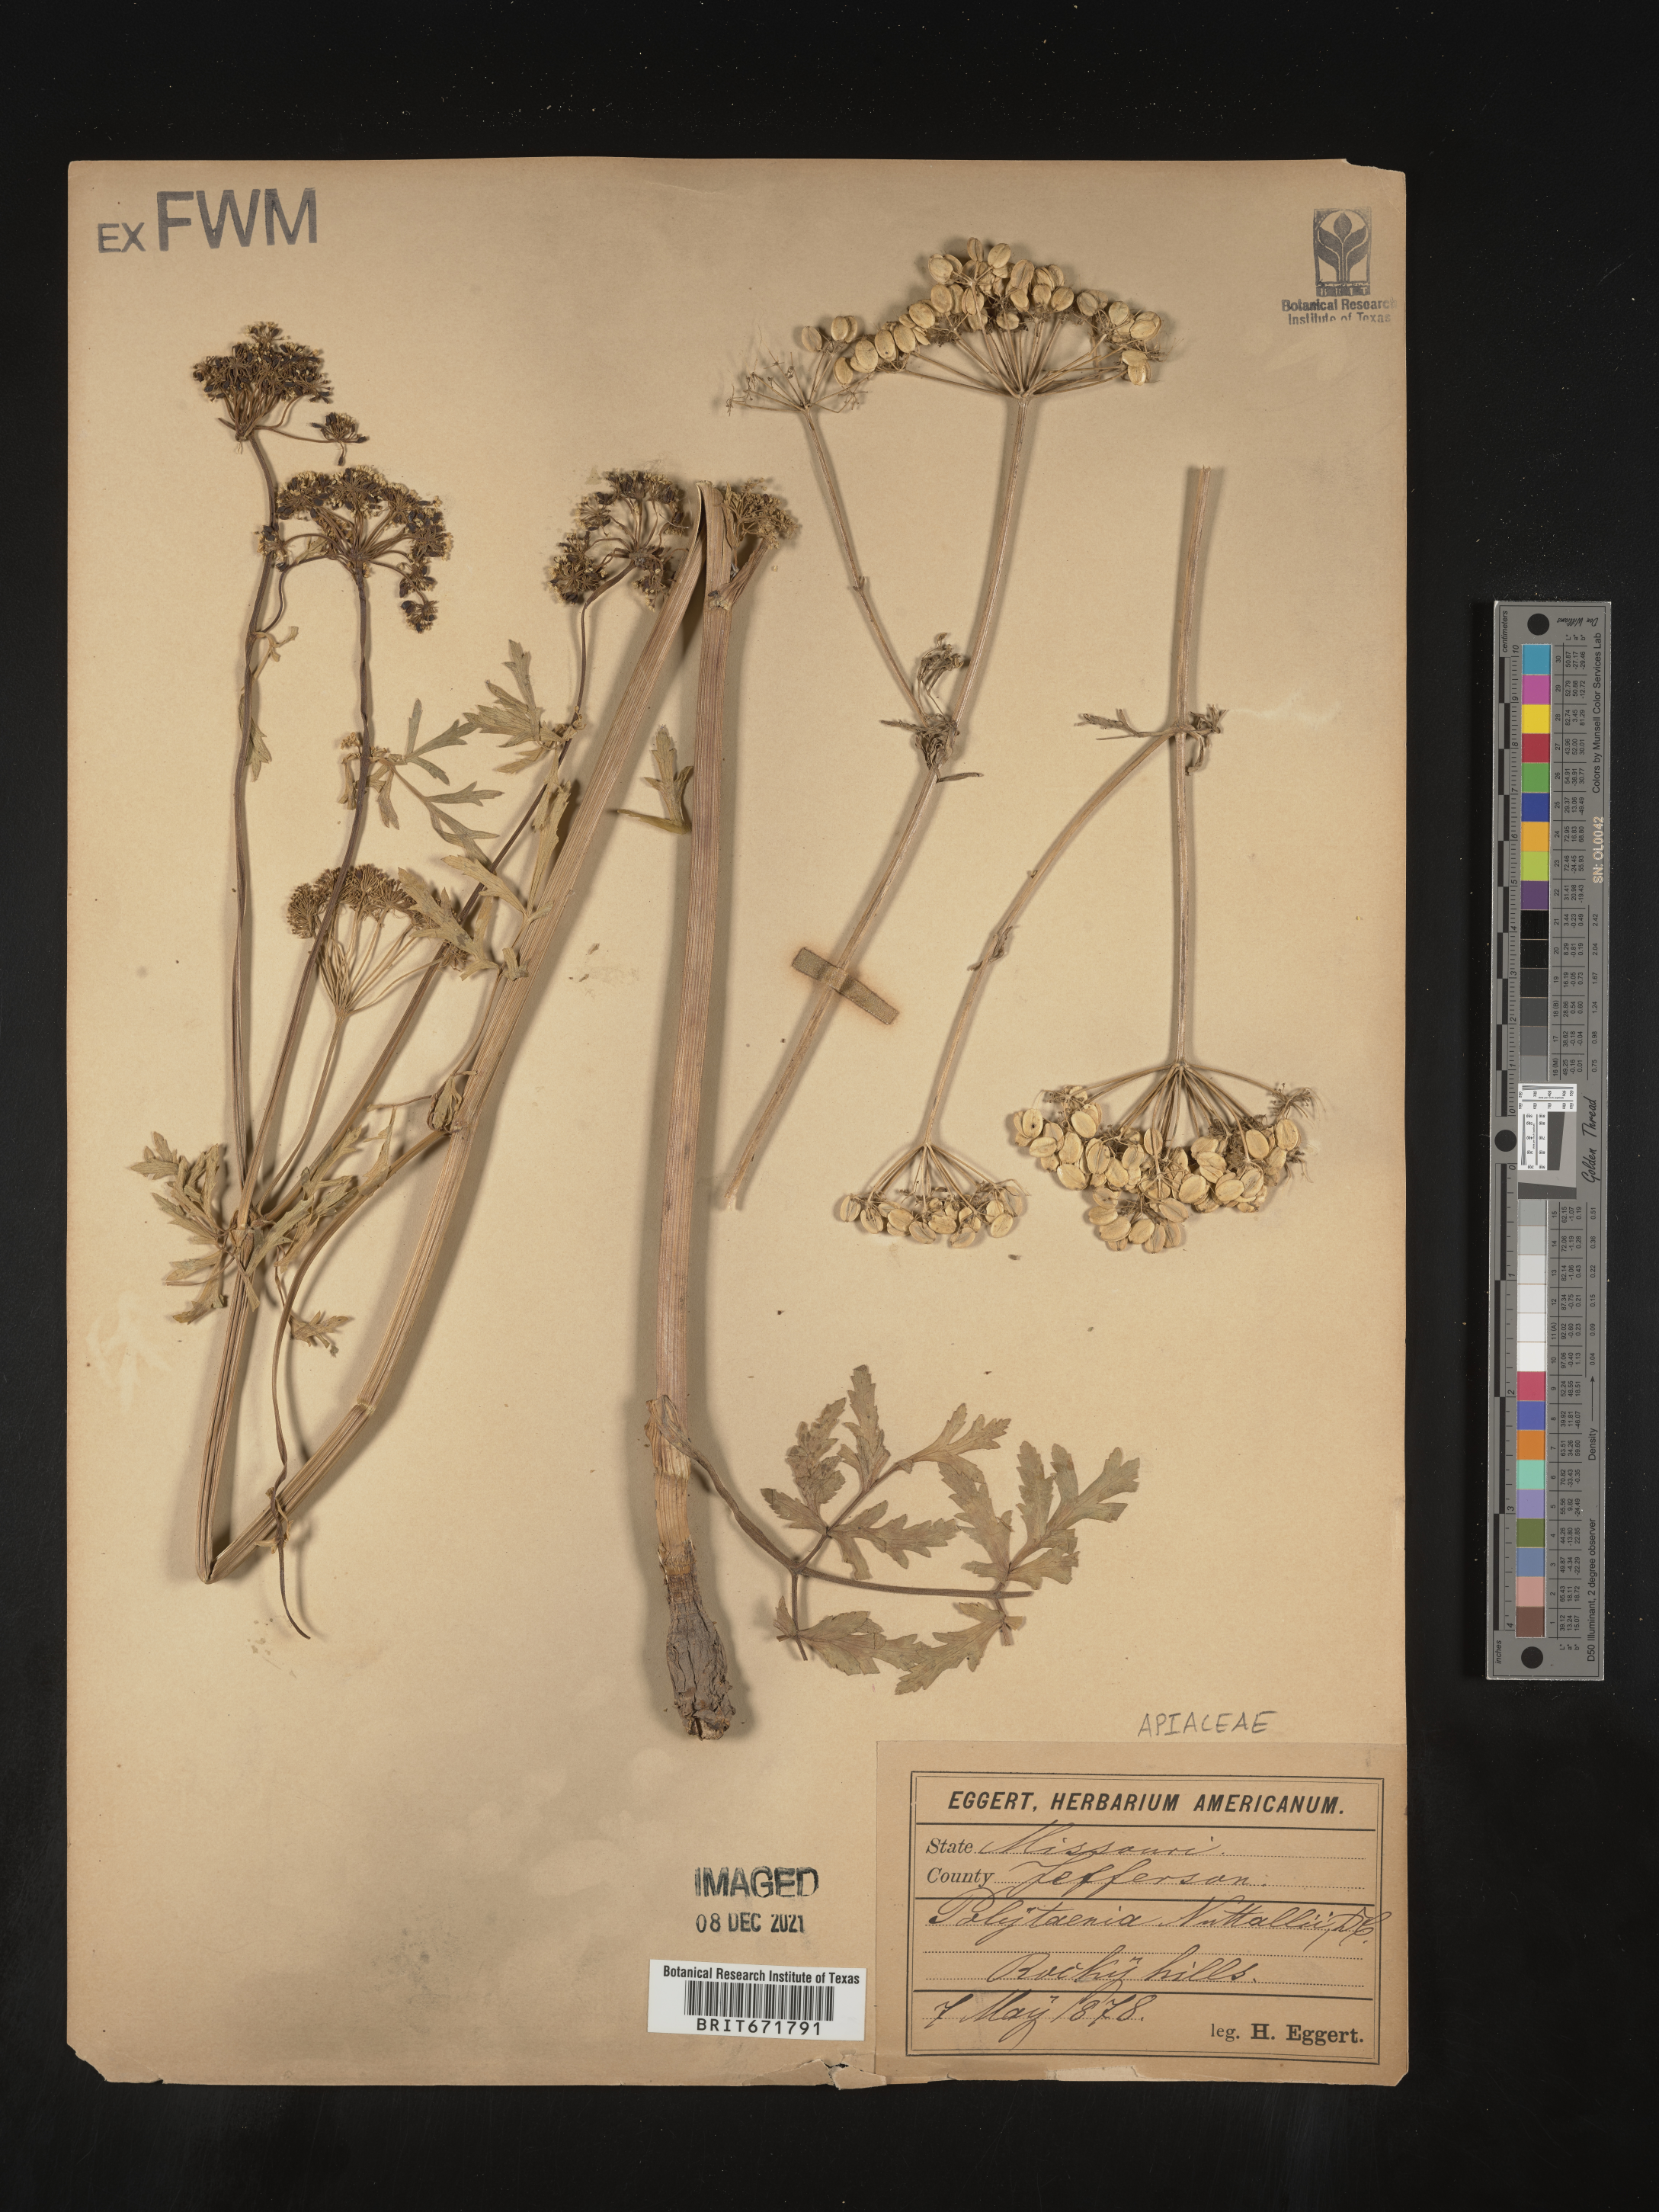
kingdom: Plantae
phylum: Tracheophyta
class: Magnoliopsida
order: Apiales
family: Apiaceae
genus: Polytaenia
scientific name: Polytaenia nuttallii
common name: Prairie-parsley
